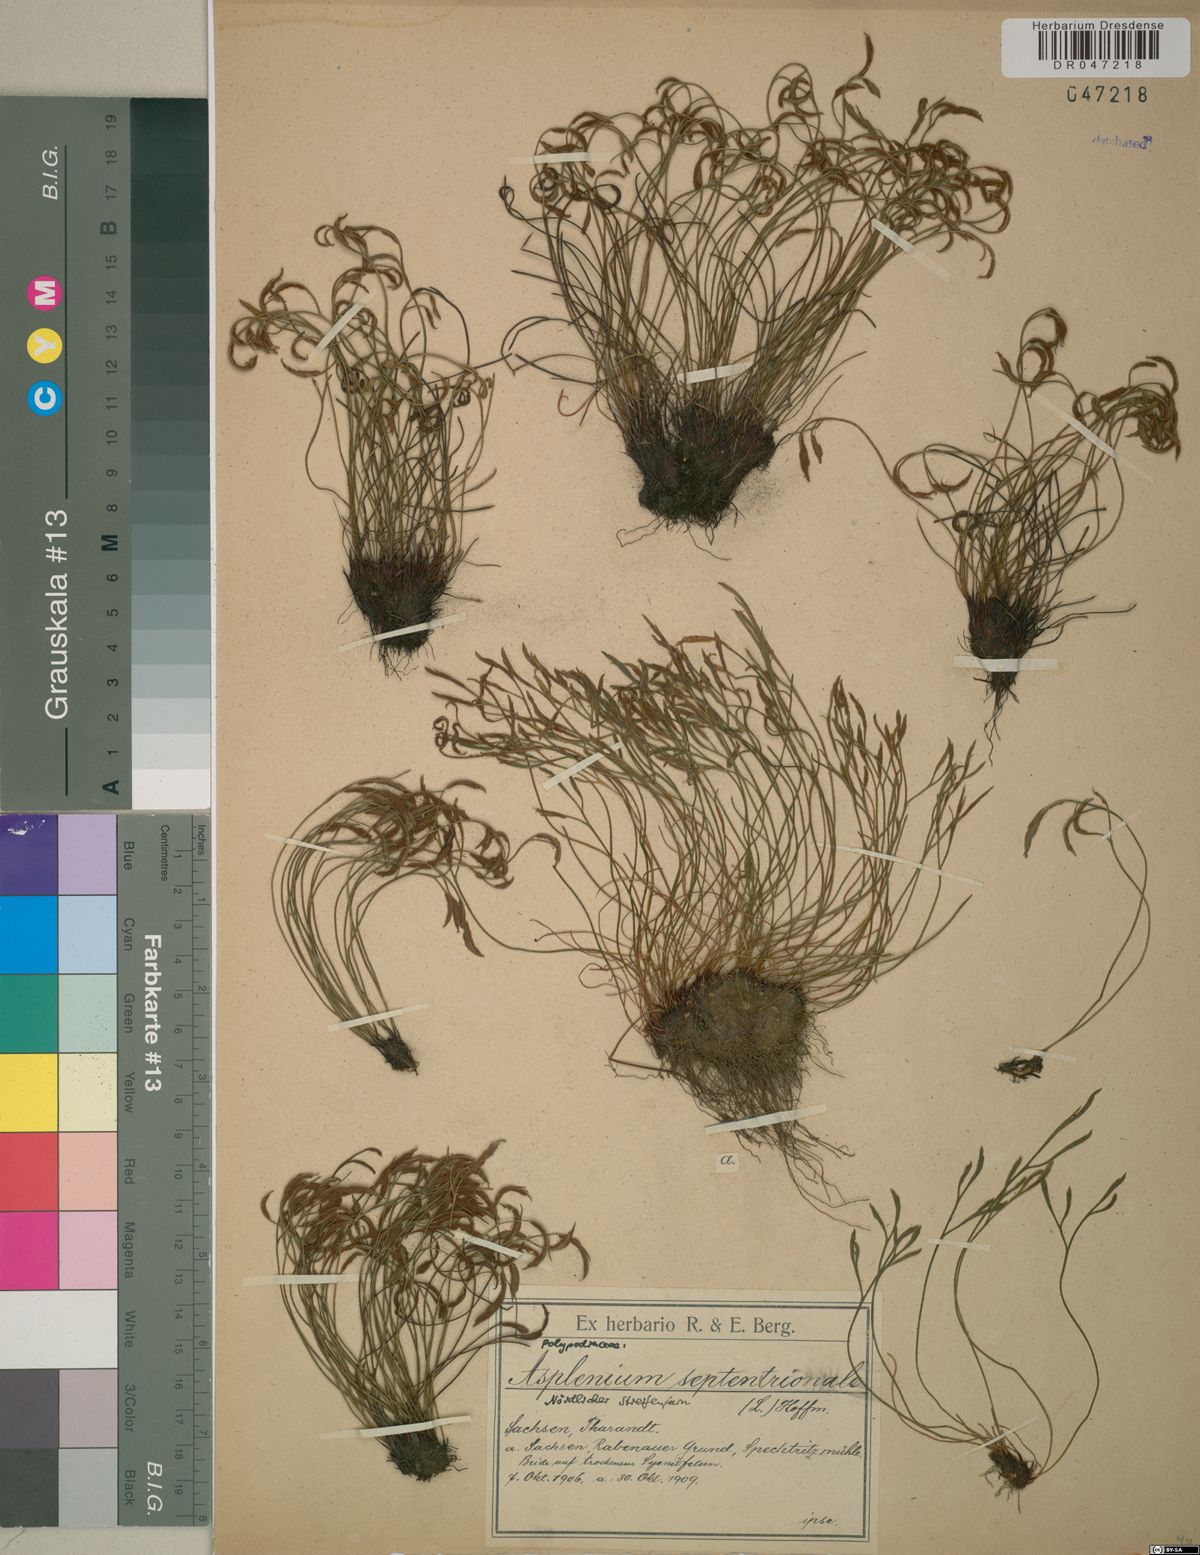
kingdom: Plantae
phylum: Tracheophyta
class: Polypodiopsida
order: Polypodiales
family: Aspleniaceae
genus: Asplenium
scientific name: Asplenium septentrionale
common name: Forked spleenwort
